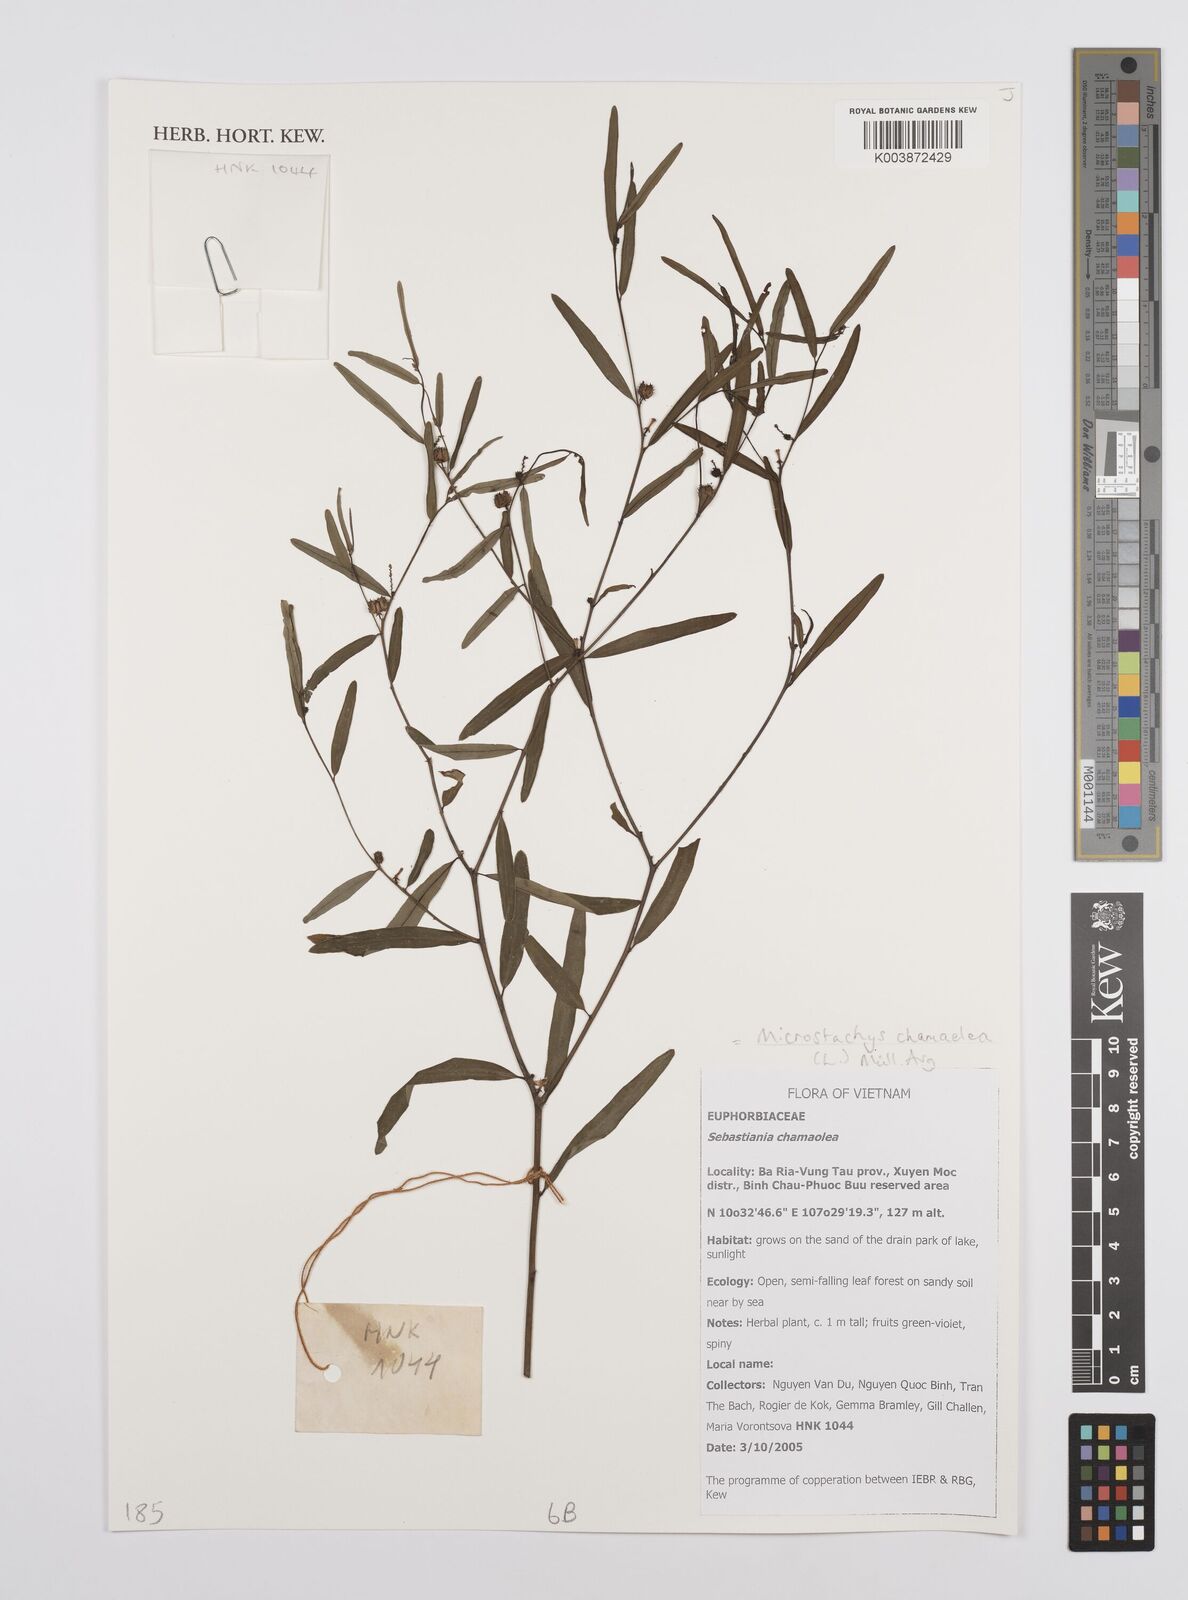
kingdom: Plantae
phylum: Tracheophyta
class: Magnoliopsida
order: Malpighiales
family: Euphorbiaceae
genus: Microstachys
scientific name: Microstachys chamaelea
